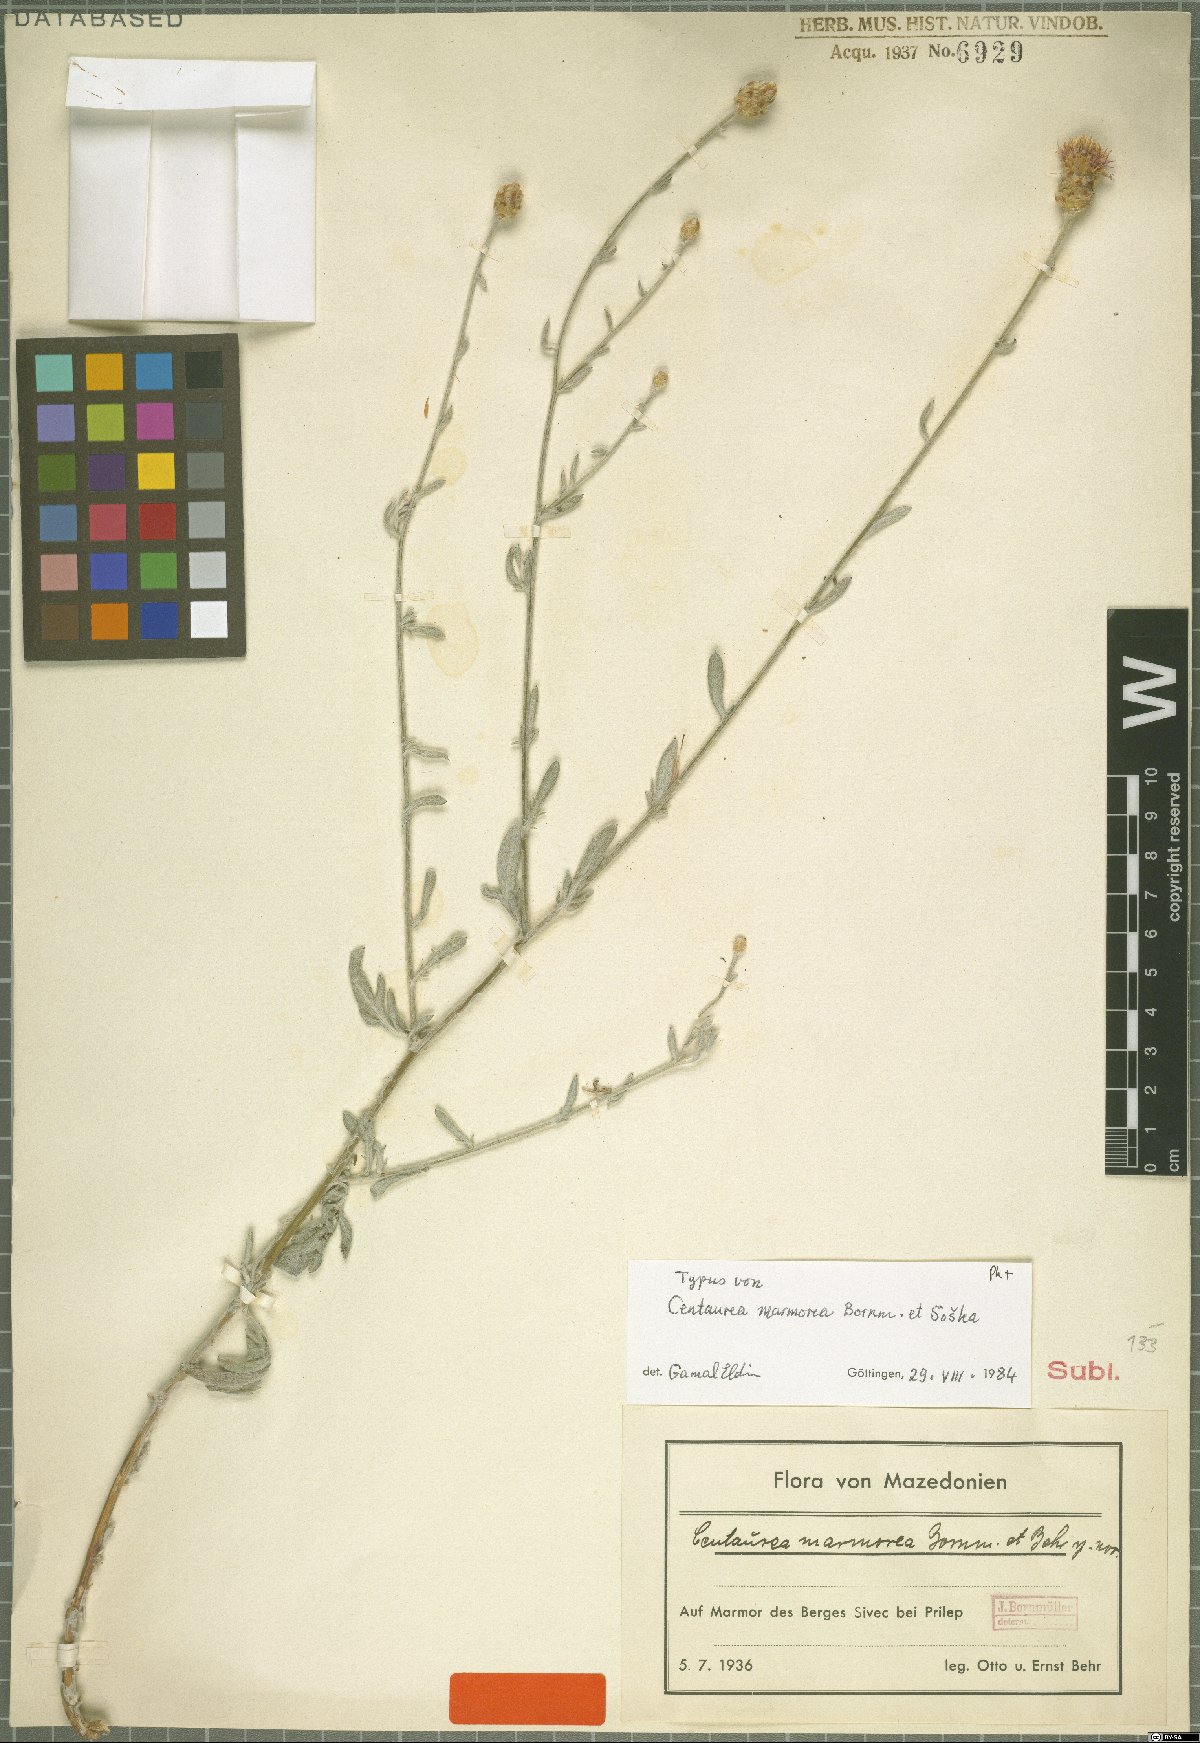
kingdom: Plantae
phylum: Tracheophyta
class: Magnoliopsida
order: Asterales
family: Asteraceae
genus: Centaurea
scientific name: Centaurea marmorea
